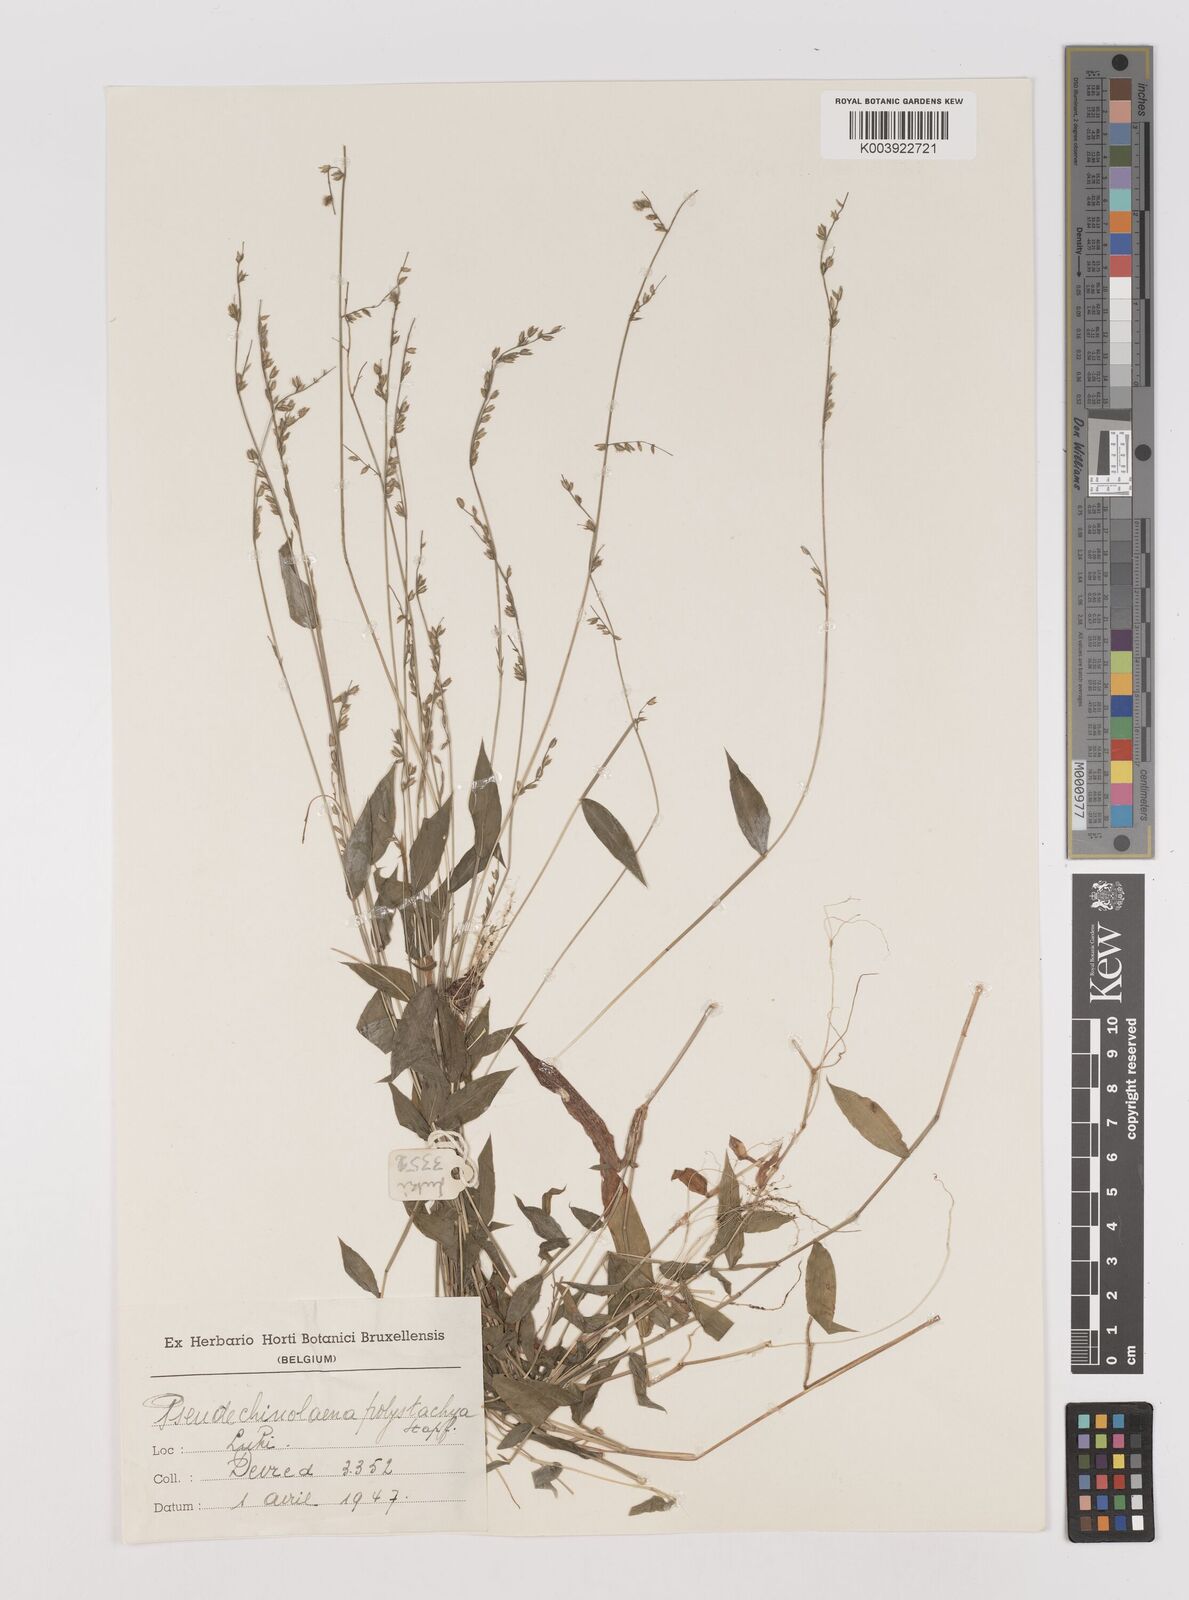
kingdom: Plantae
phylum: Tracheophyta
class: Liliopsida
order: Poales
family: Poaceae
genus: Pseudechinolaena
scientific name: Pseudechinolaena polystachya
